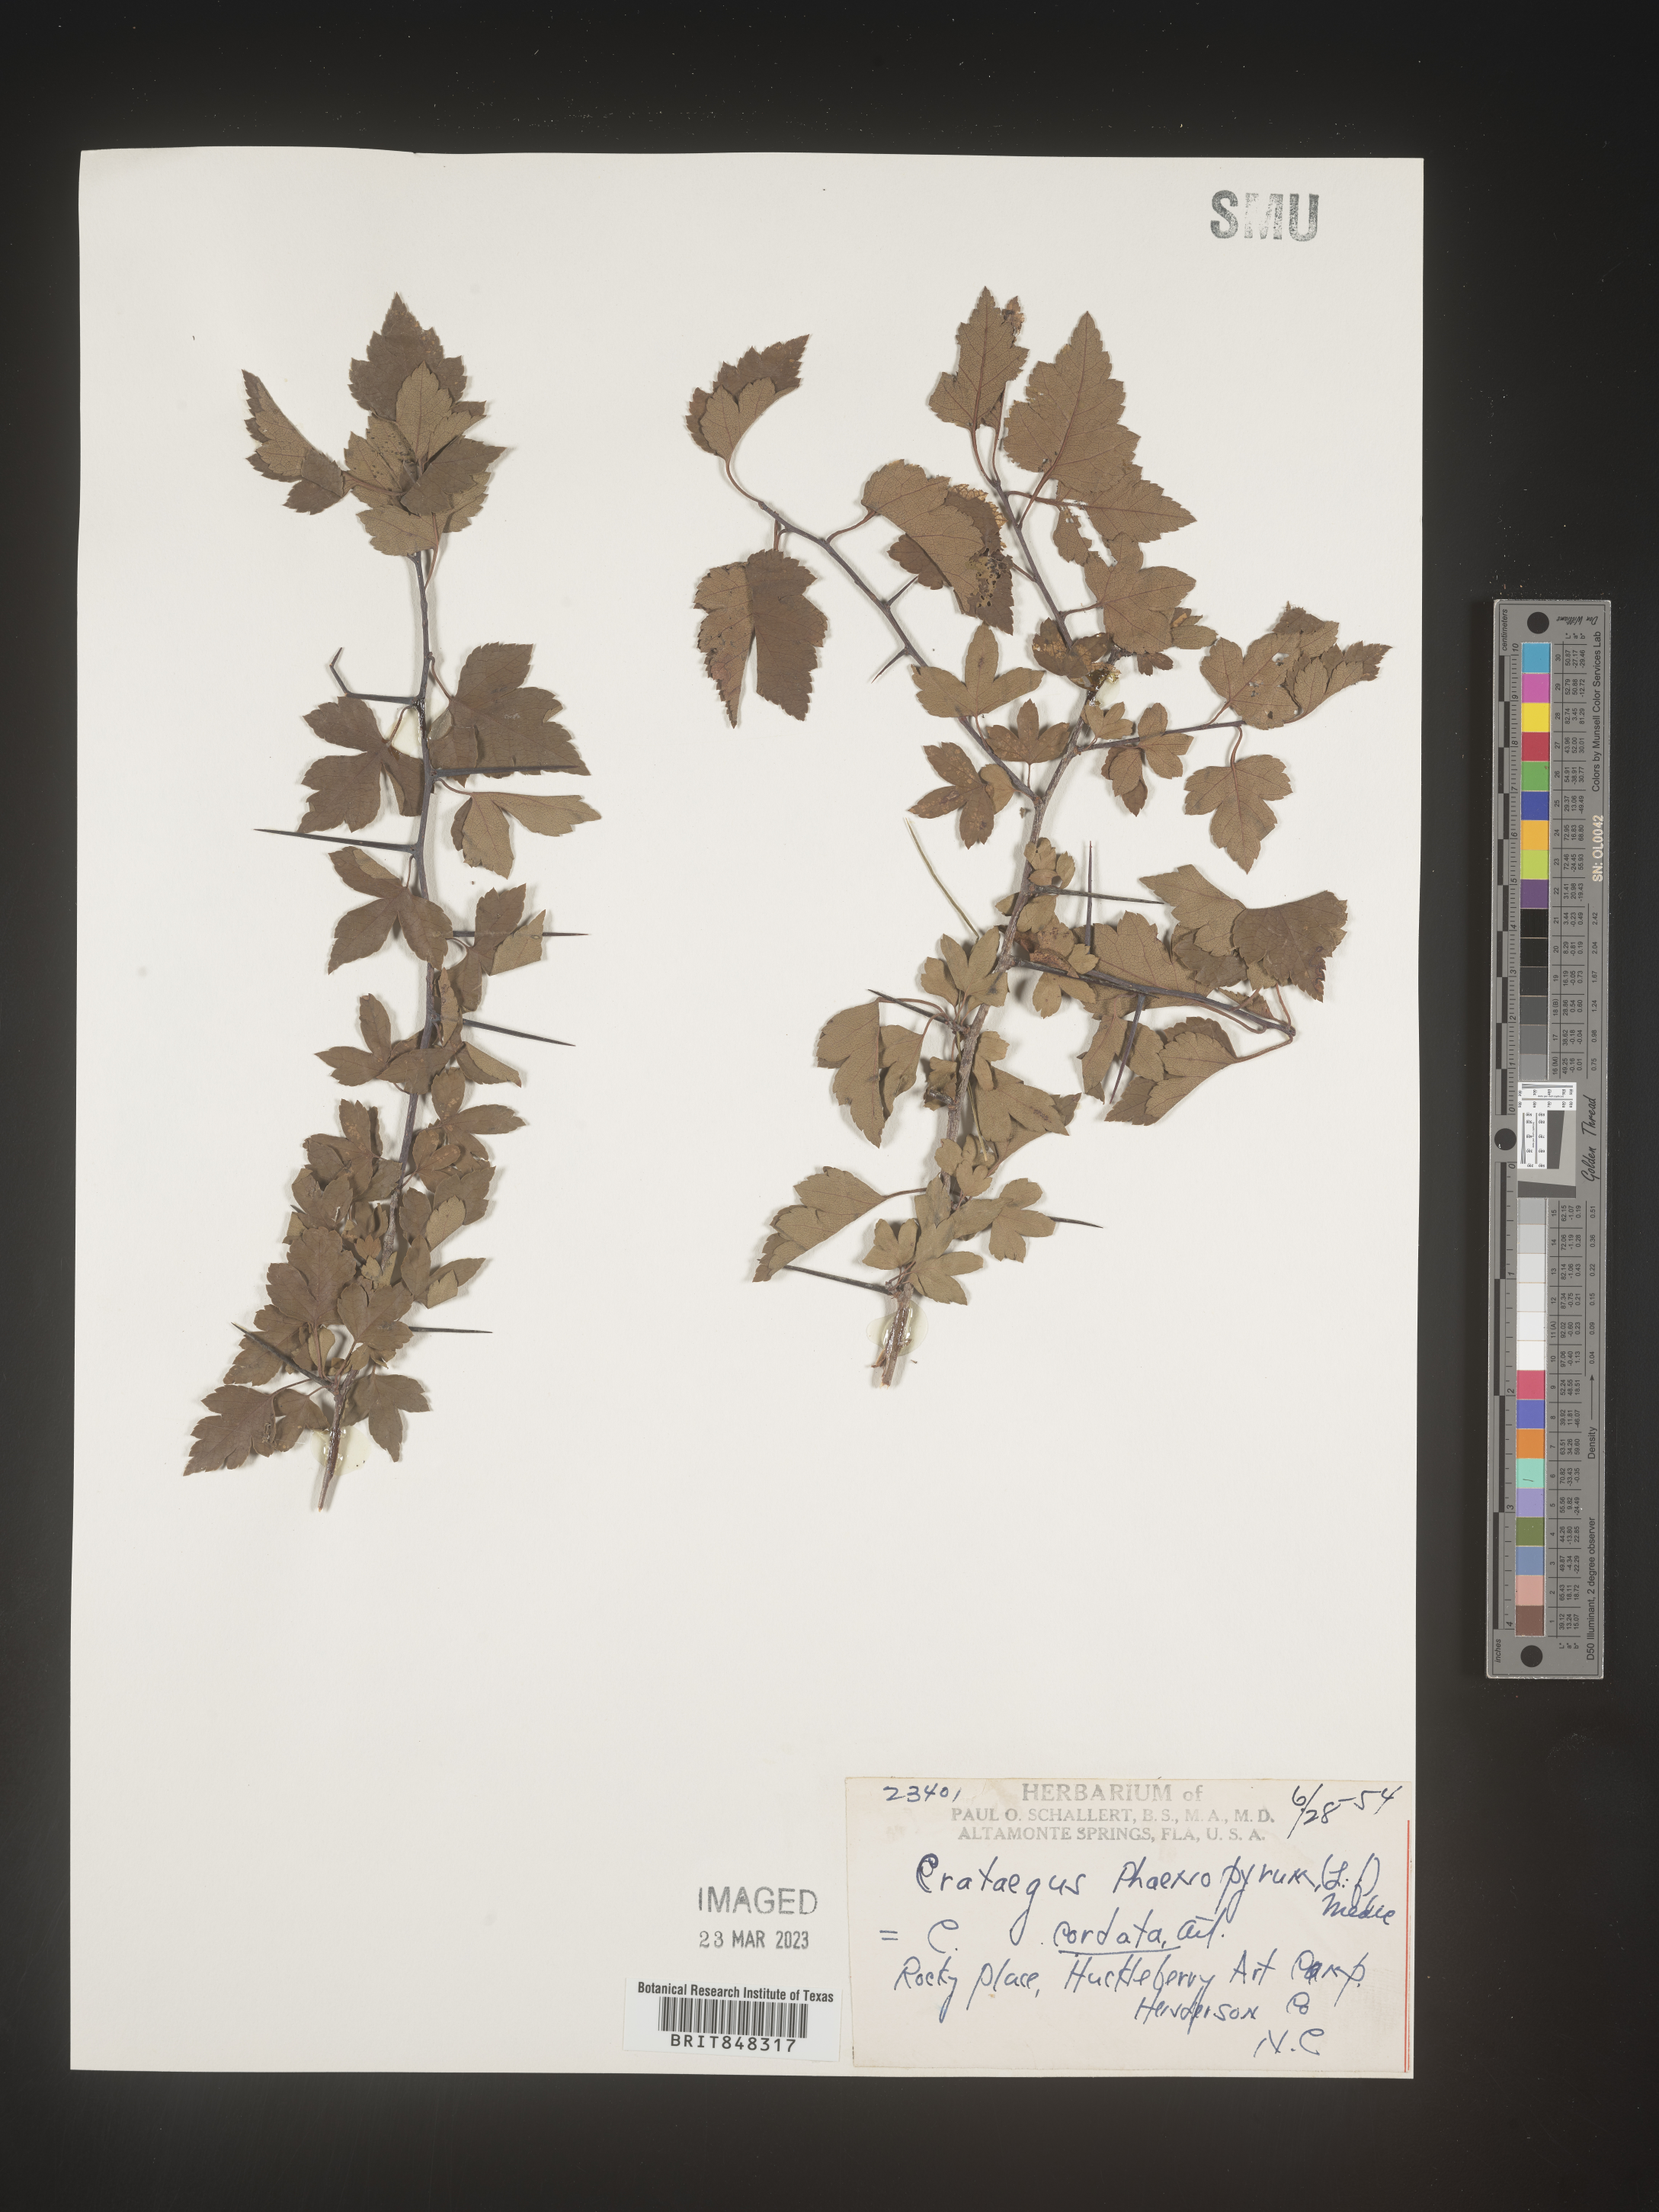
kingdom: Plantae
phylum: Tracheophyta
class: Magnoliopsida
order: Rosales
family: Rosaceae
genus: Crataegus
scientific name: Crataegus phaenopyrum
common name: Washington hawthorn
